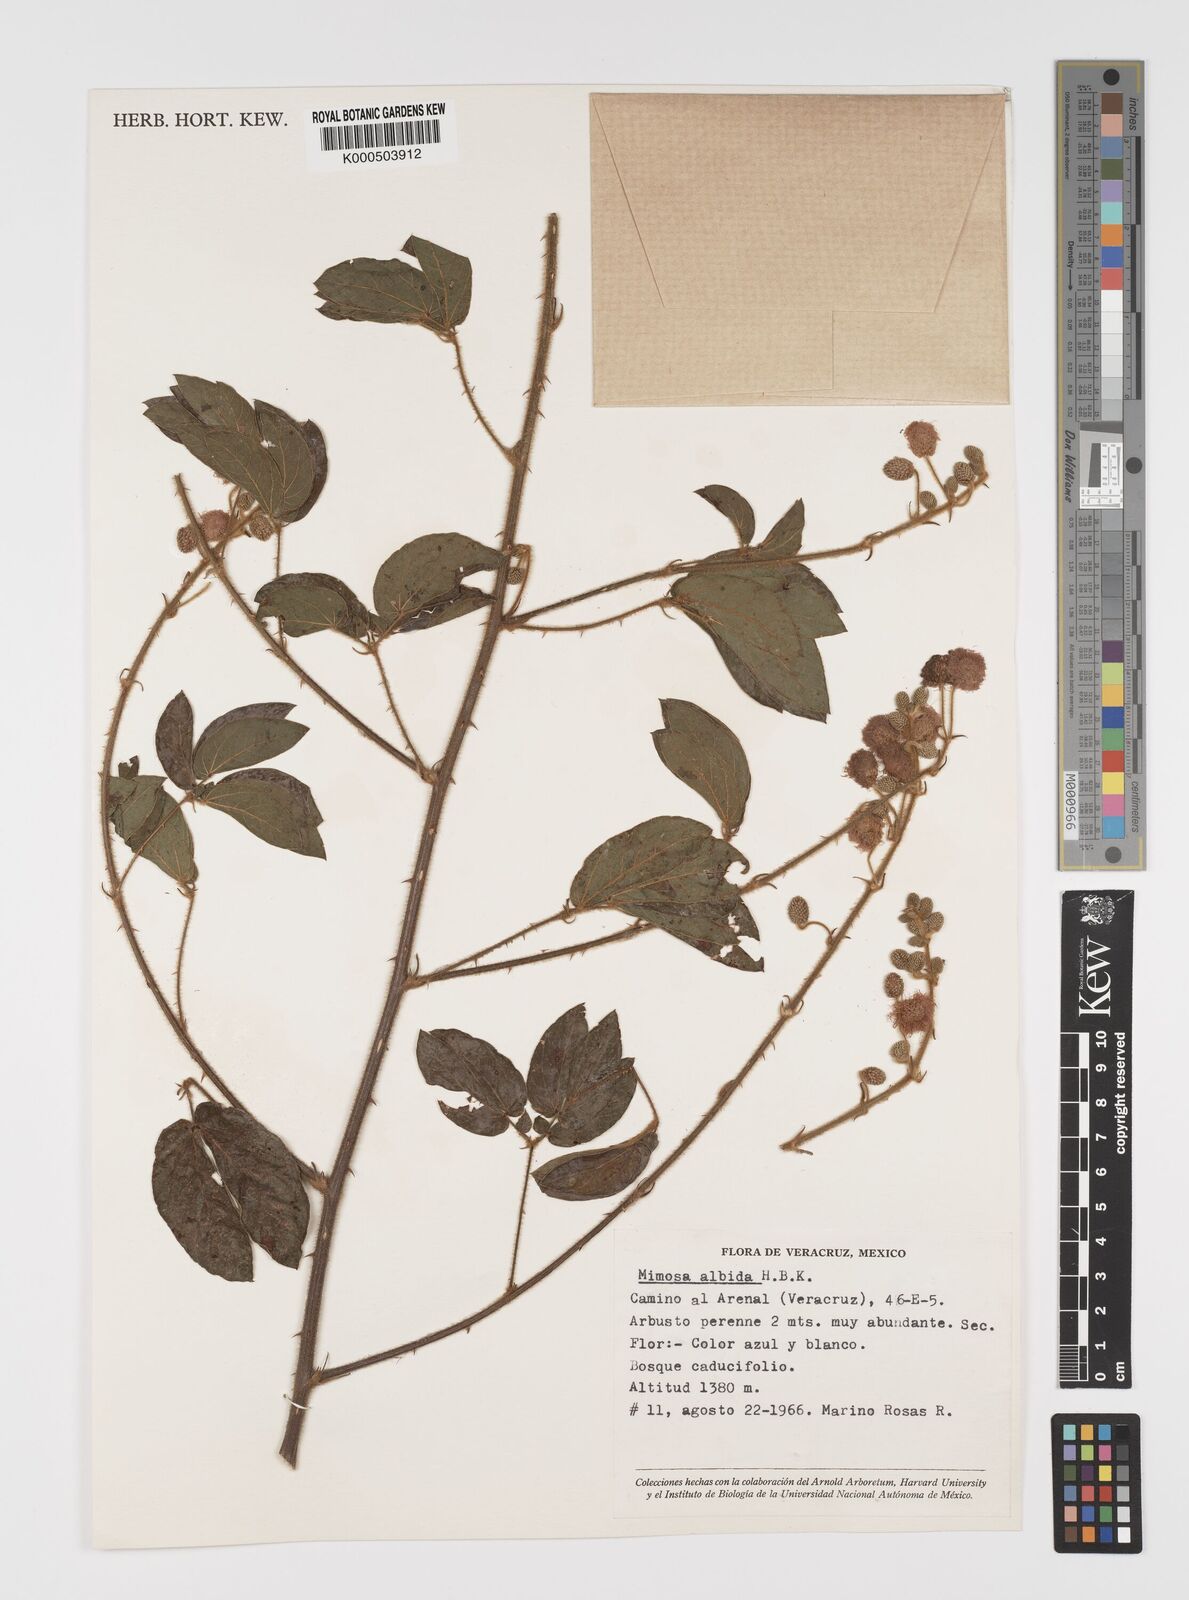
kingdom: Plantae
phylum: Tracheophyta
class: Magnoliopsida
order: Fabales
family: Fabaceae
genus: Mimosa
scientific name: Mimosa albida
